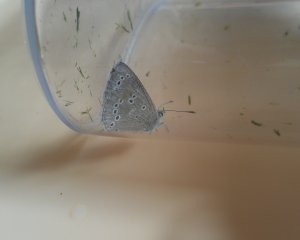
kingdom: Animalia
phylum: Arthropoda
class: Insecta
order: Lepidoptera
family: Lycaenidae
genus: Glaucopsyche
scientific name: Glaucopsyche lygdamus
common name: Silvery Blue
